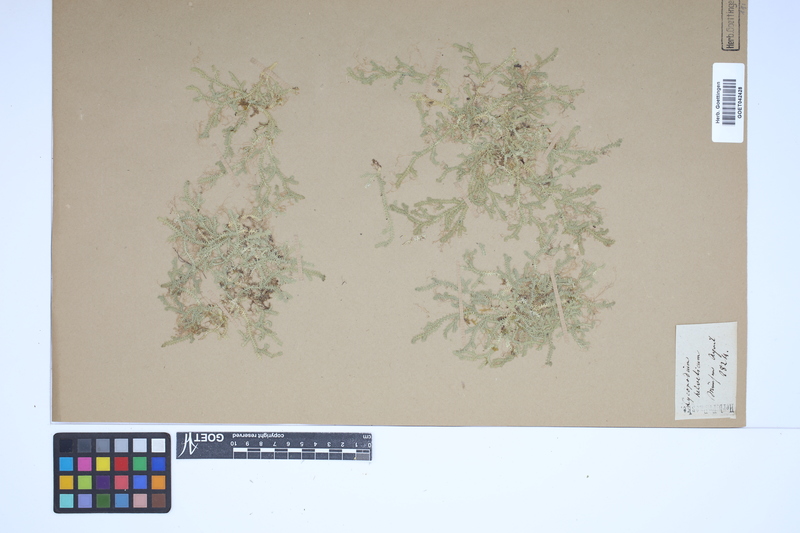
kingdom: Plantae
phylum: Tracheophyta
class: Lycopodiopsida
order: Selaginellales
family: Selaginellaceae
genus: Selaginella
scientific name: Selaginella helvetica
